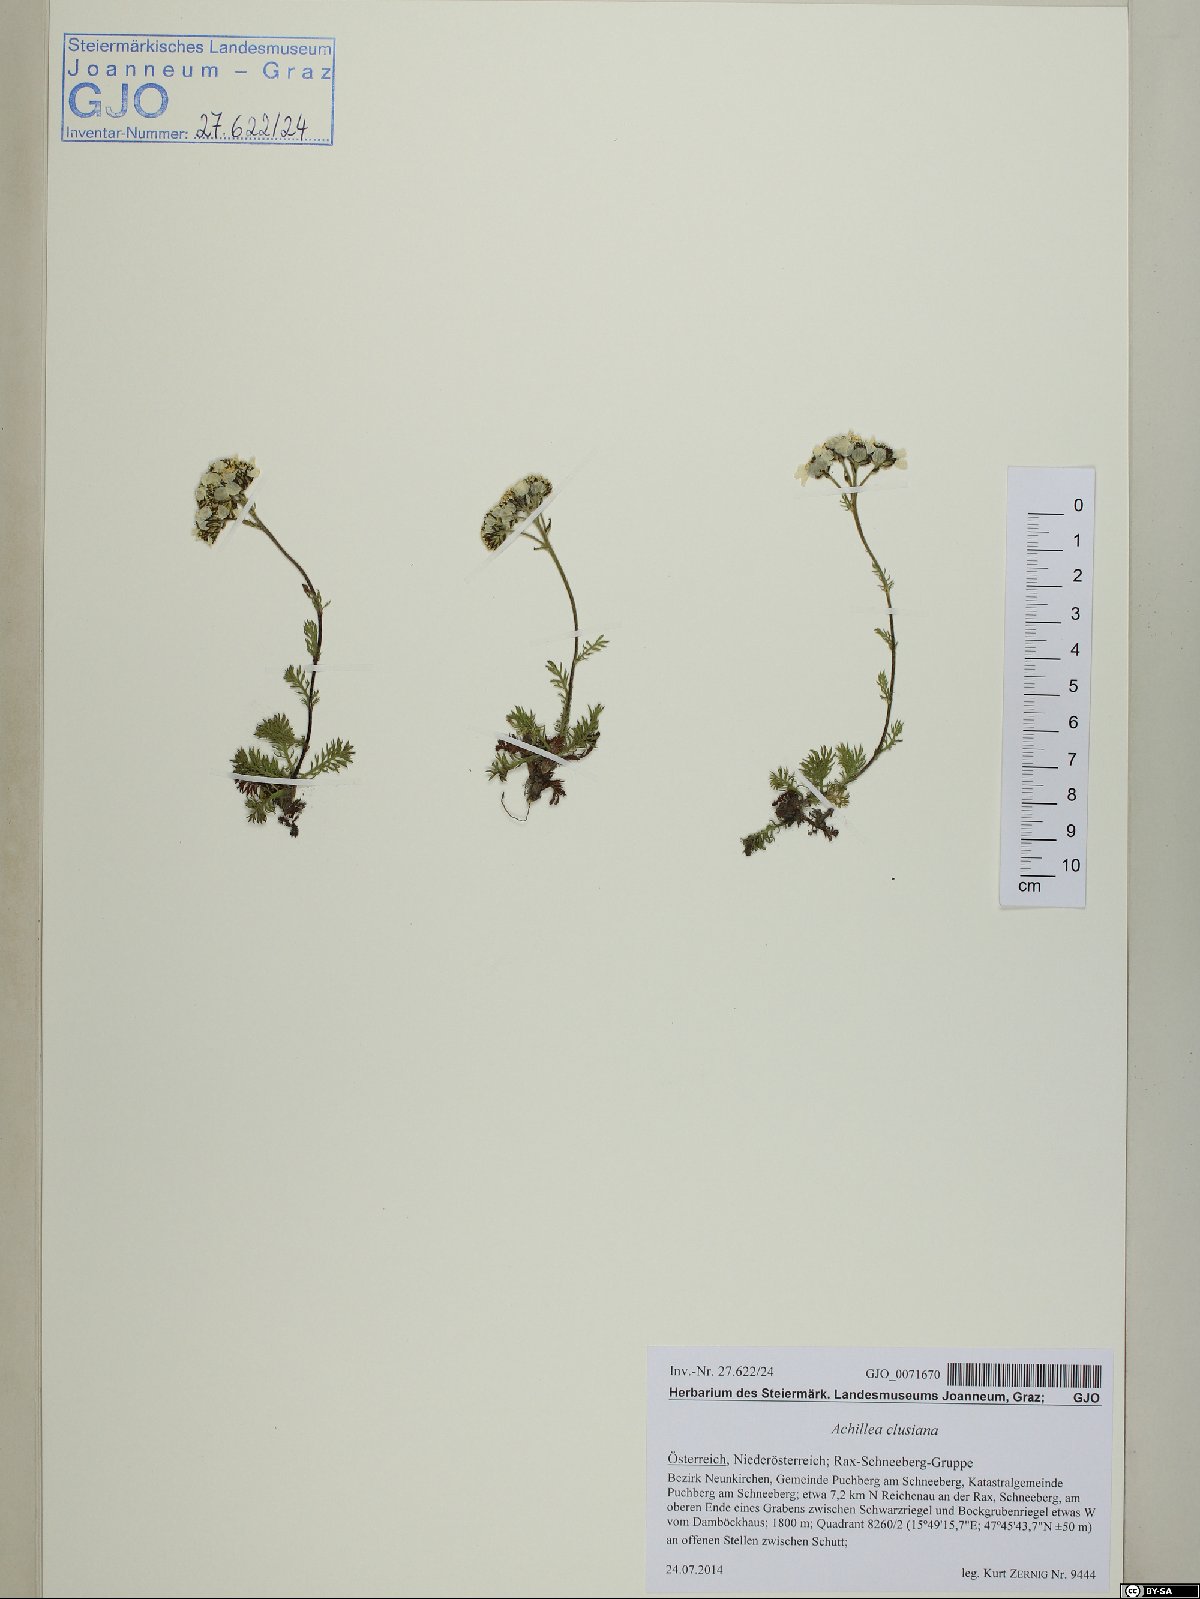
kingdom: Plantae
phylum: Tracheophyta
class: Magnoliopsida
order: Asterales
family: Asteraceae
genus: Achillea
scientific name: Achillea clusiana
